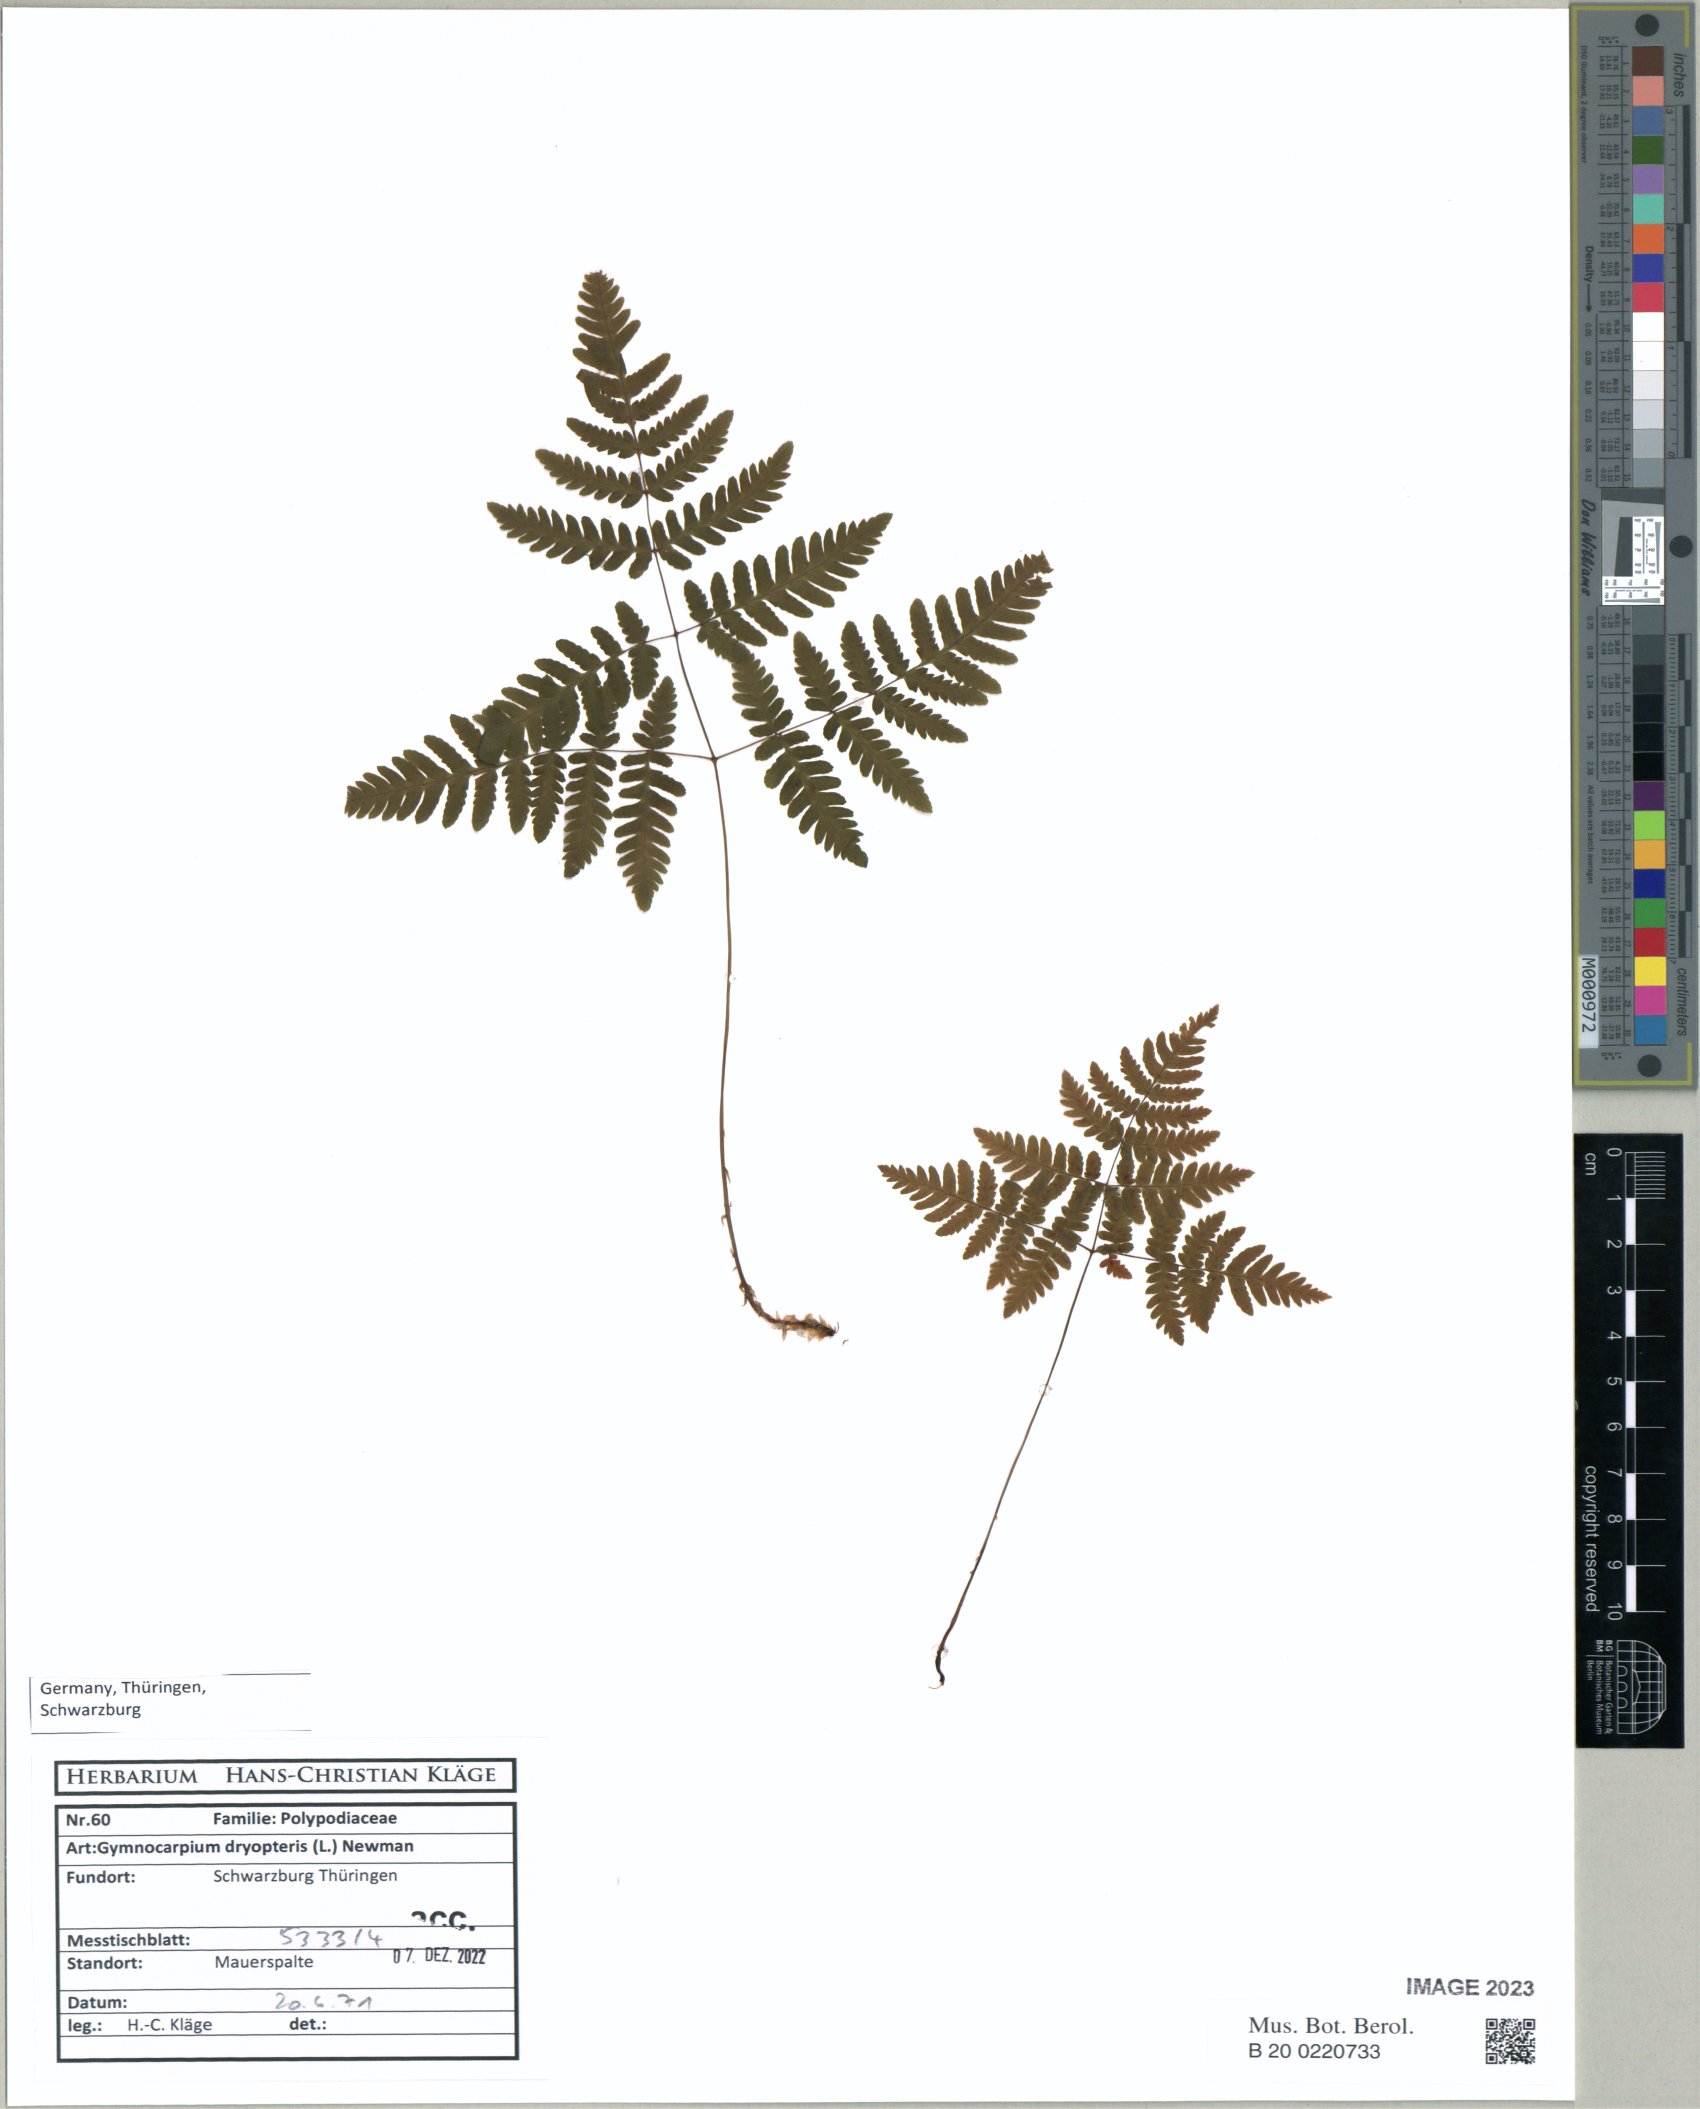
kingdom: Plantae
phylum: Tracheophyta
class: Polypodiopsida
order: Polypodiales
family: Cystopteridaceae
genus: Gymnocarpium
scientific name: Gymnocarpium dryopteris
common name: Oak fern
